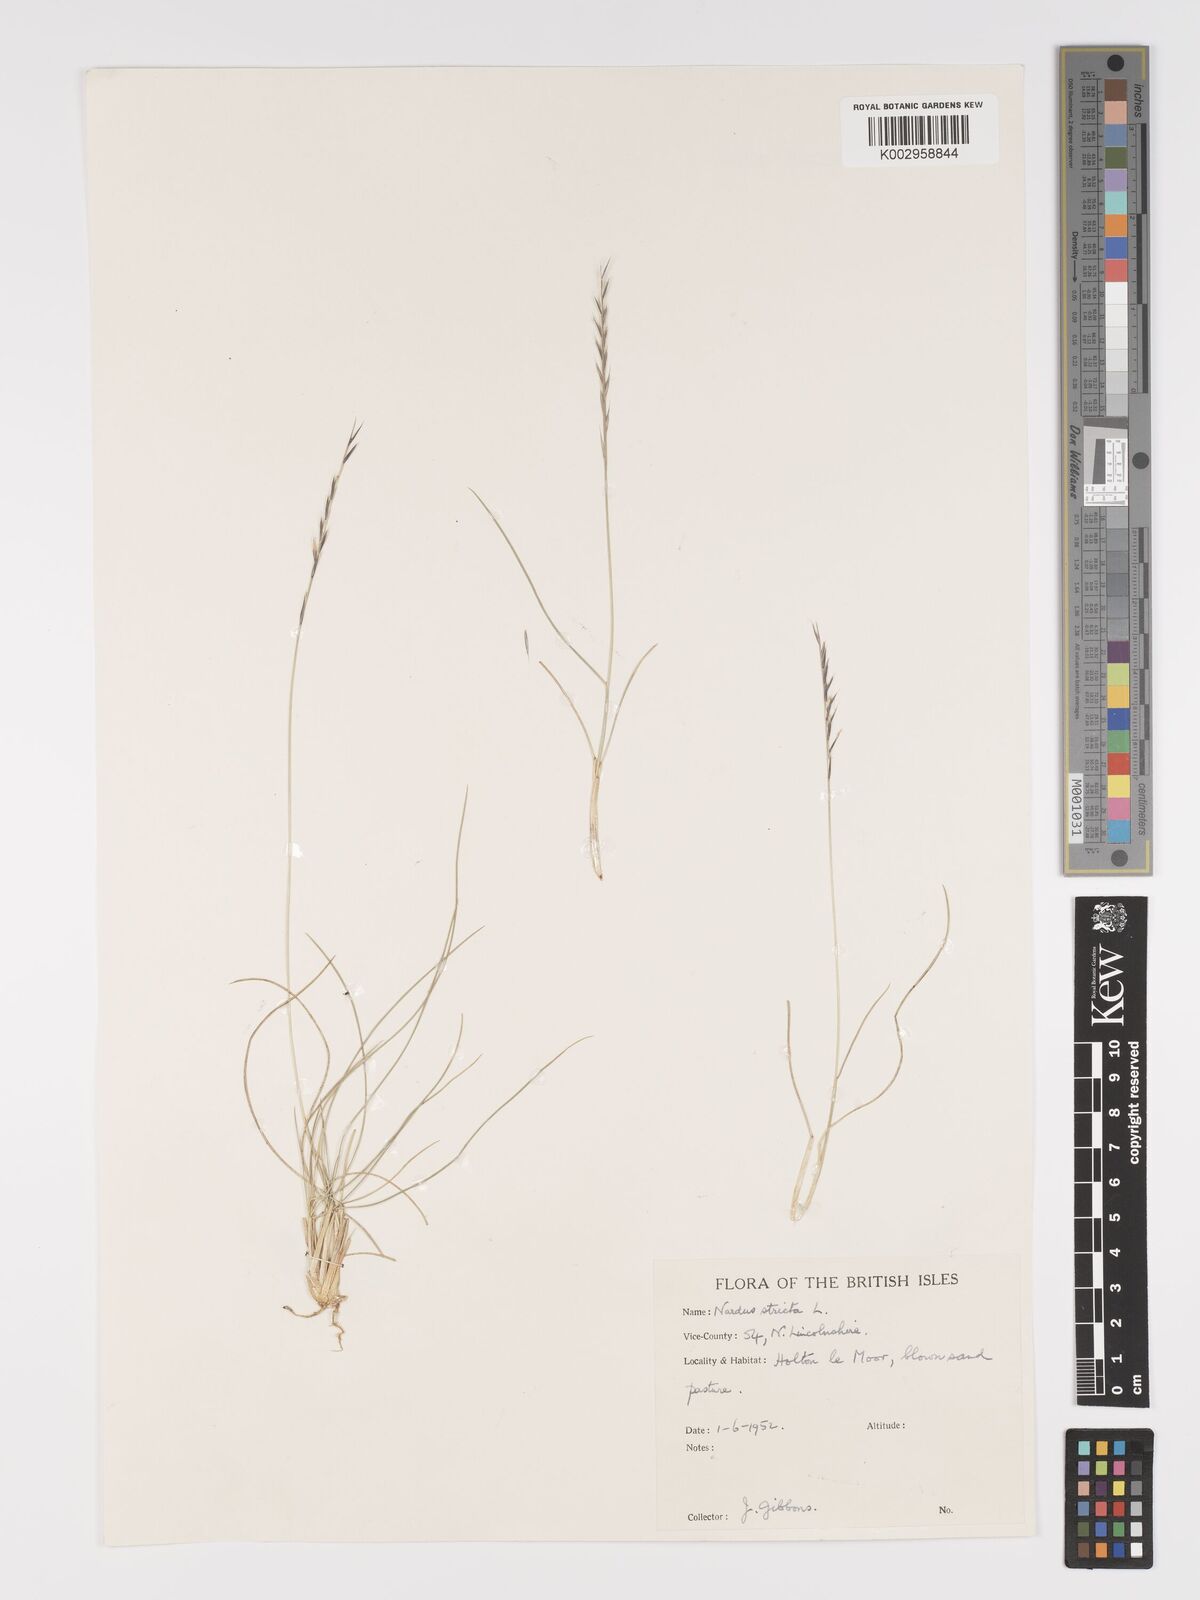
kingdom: Plantae
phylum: Tracheophyta
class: Liliopsida
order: Poales
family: Poaceae
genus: Nardus
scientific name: Nardus stricta
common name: Mat-grass
